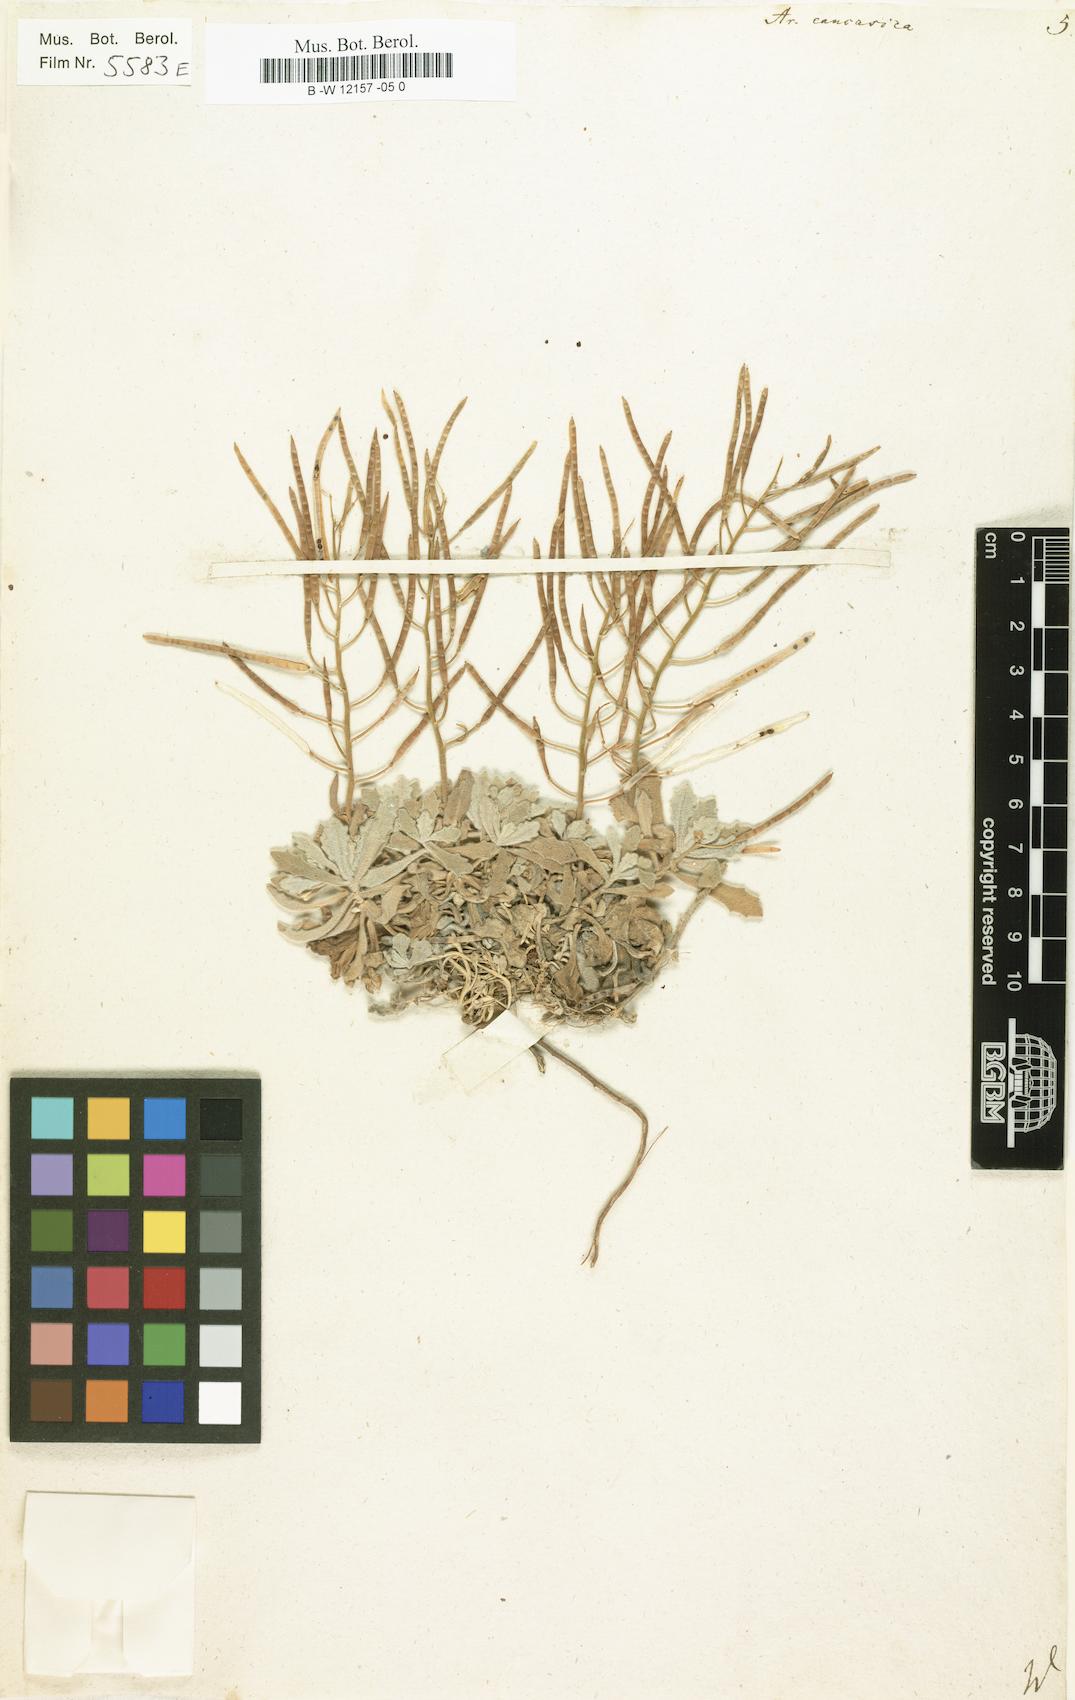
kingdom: Plantae
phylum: Tracheophyta
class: Magnoliopsida
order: Brassicales
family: Brassicaceae
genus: Arabis
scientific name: Arabis caucasica
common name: Gray rockcress
